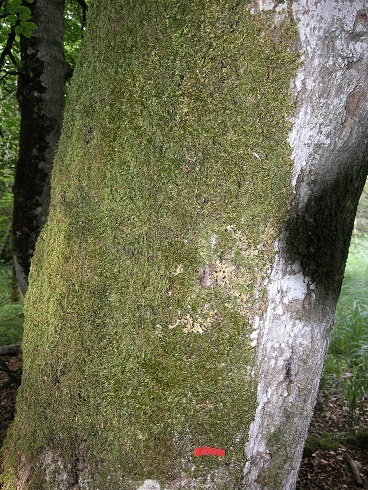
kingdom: Fungi
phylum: Ascomycota
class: Lecanoromycetes
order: Peltigerales
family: Lobariaceae
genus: Lobaria
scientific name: Lobaria pulmonaria
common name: almindelig lungelav
